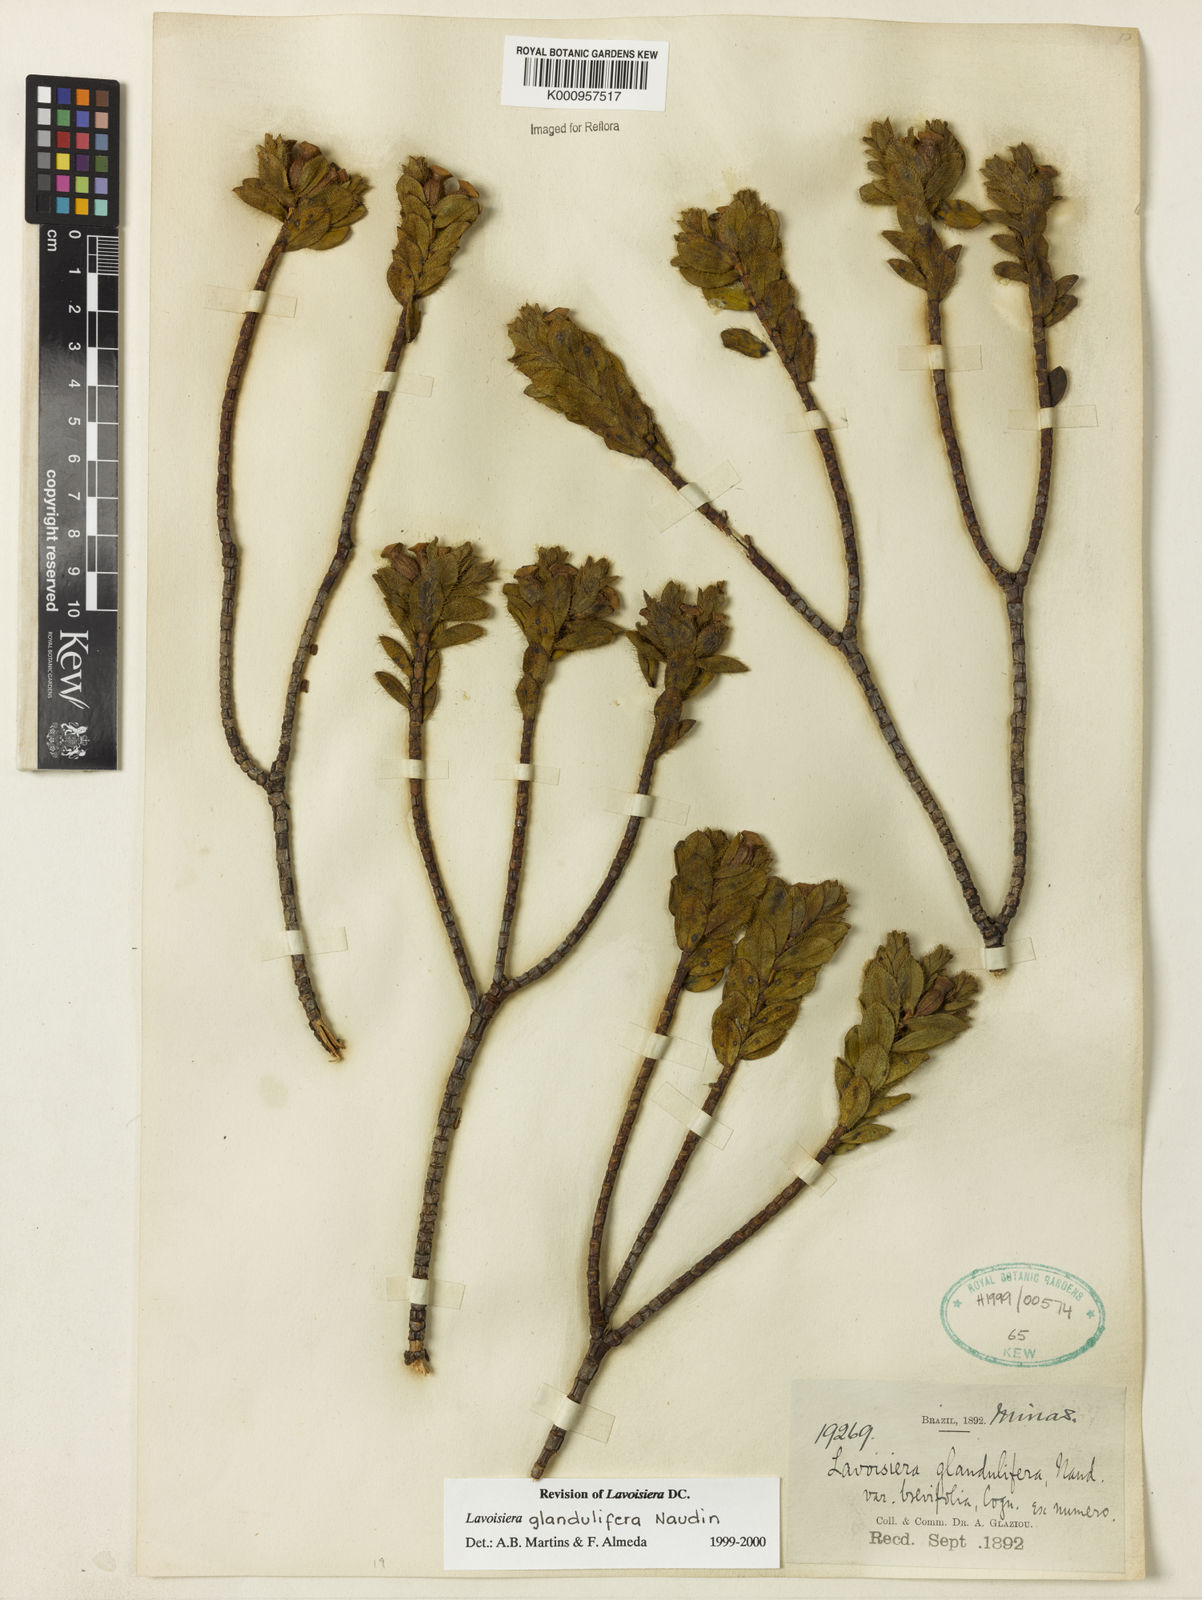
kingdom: Plantae
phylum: Tracheophyta
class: Magnoliopsida
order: Myrtales
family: Melastomataceae
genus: Microlicia
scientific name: Microlicia glandulifolia
